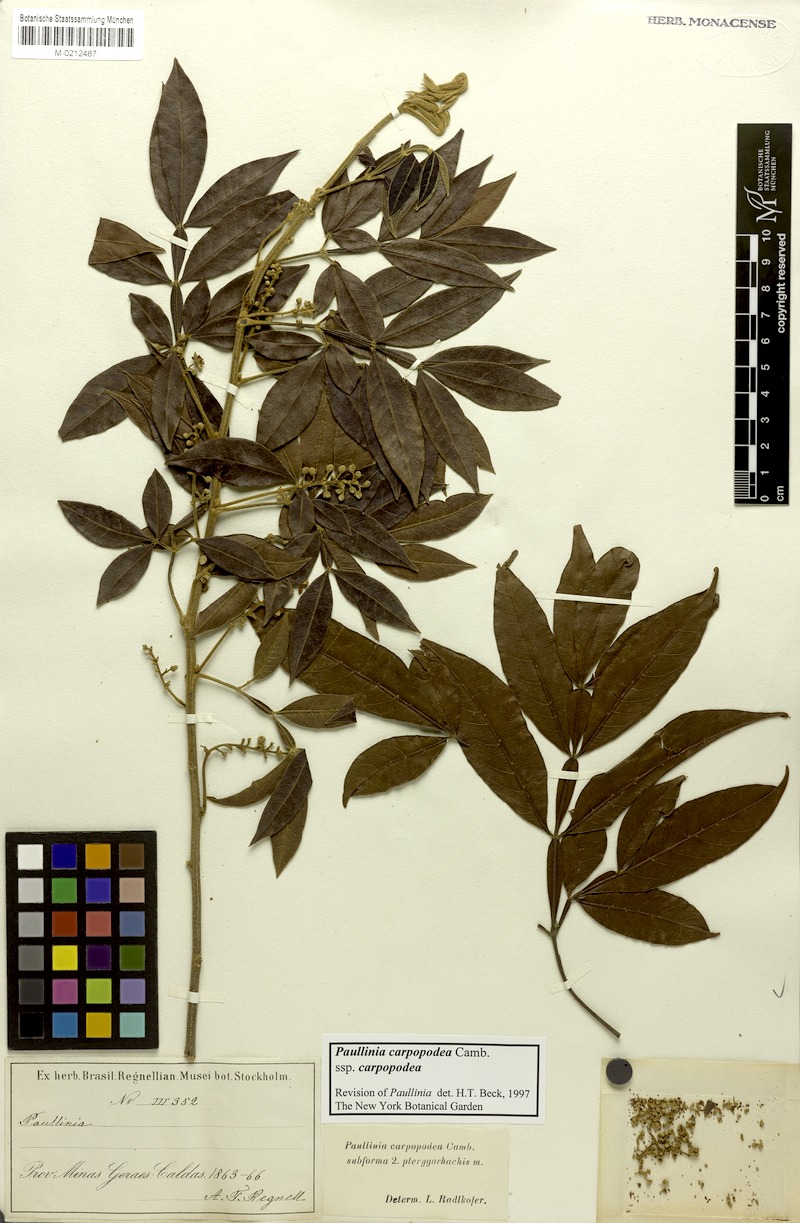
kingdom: Plantae
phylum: Tracheophyta
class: Magnoliopsida
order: Sapindales
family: Sapindaceae
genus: Paullinia
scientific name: Paullinia carpopoda
